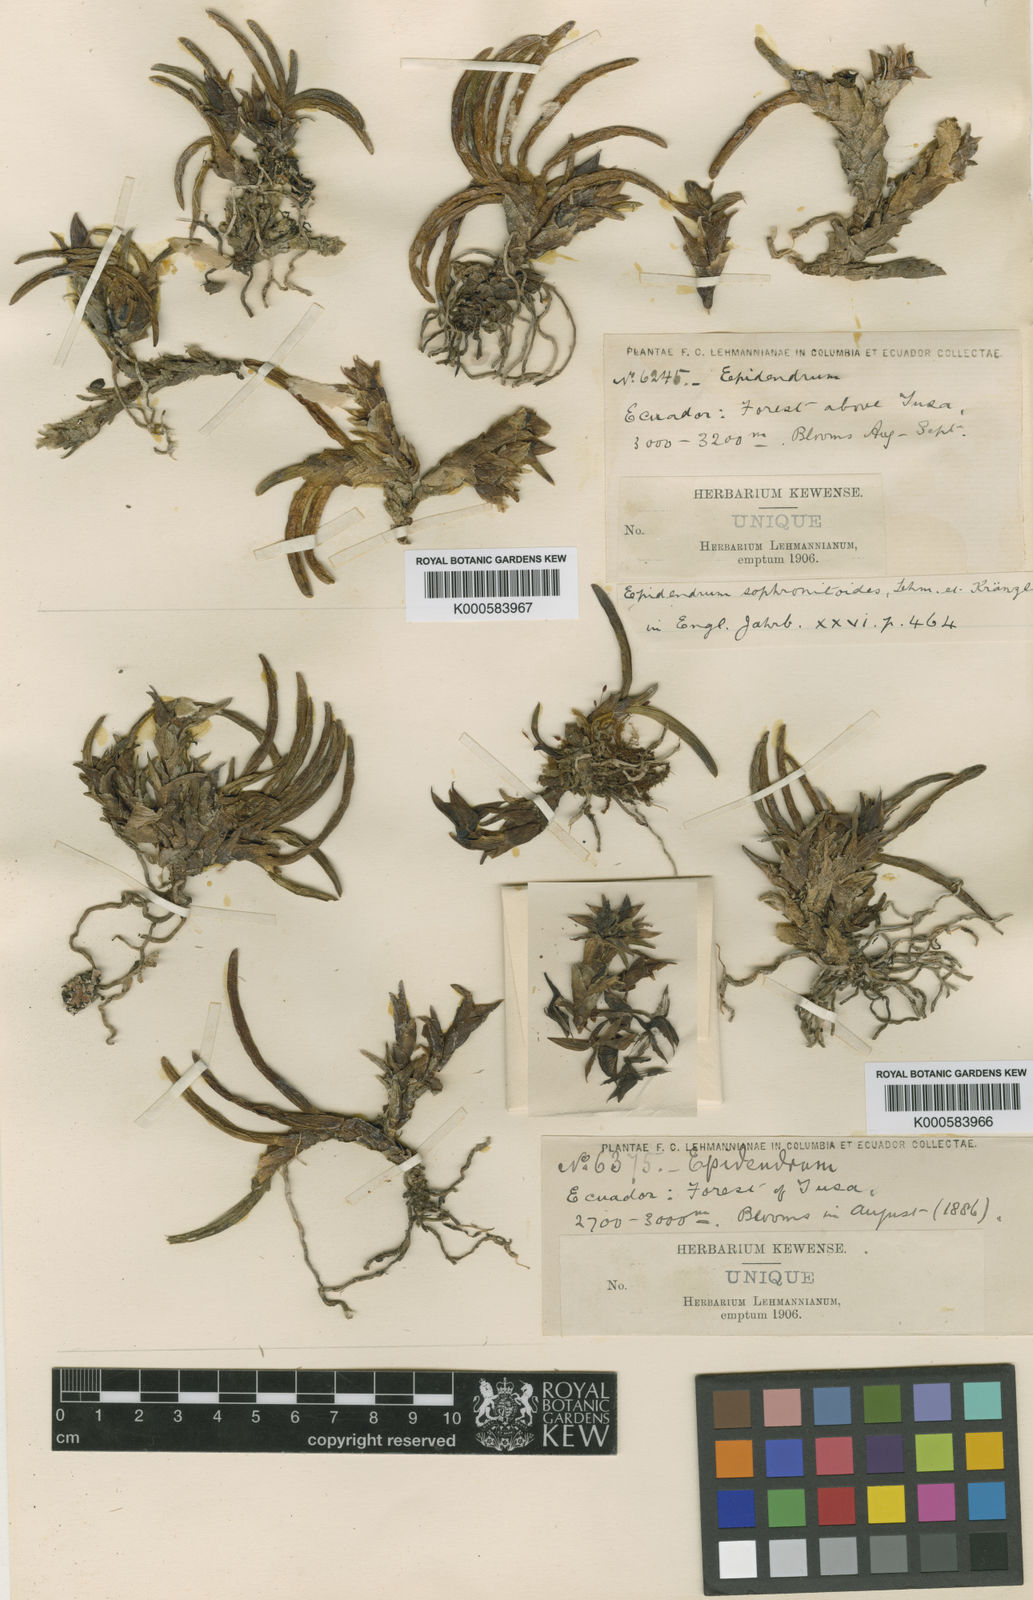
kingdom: Plantae
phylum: Tracheophyta
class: Liliopsida
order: Asparagales
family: Orchidaceae
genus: Epidendrum
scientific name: Epidendrum sophronitoides
